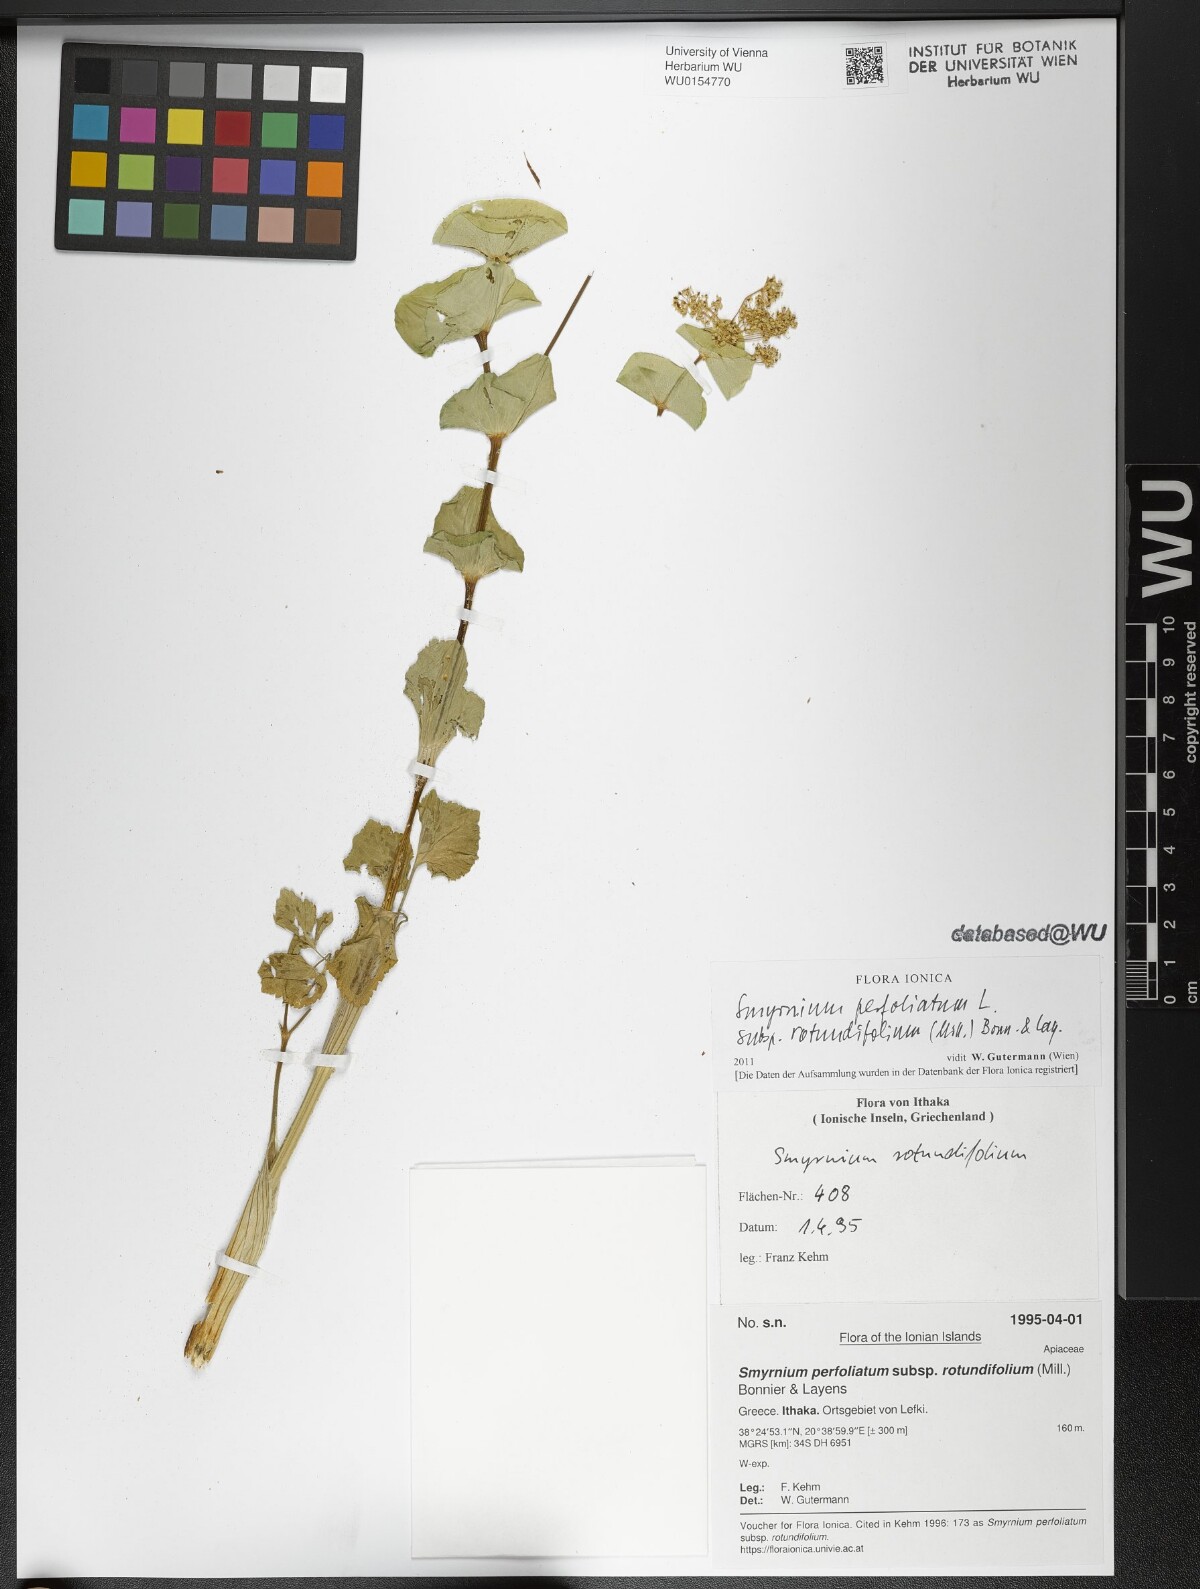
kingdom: Plantae
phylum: Tracheophyta
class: Magnoliopsida
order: Apiales
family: Apiaceae
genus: Smyrnium
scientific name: Smyrnium perfoliatum
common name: Perfoliate alexanders
